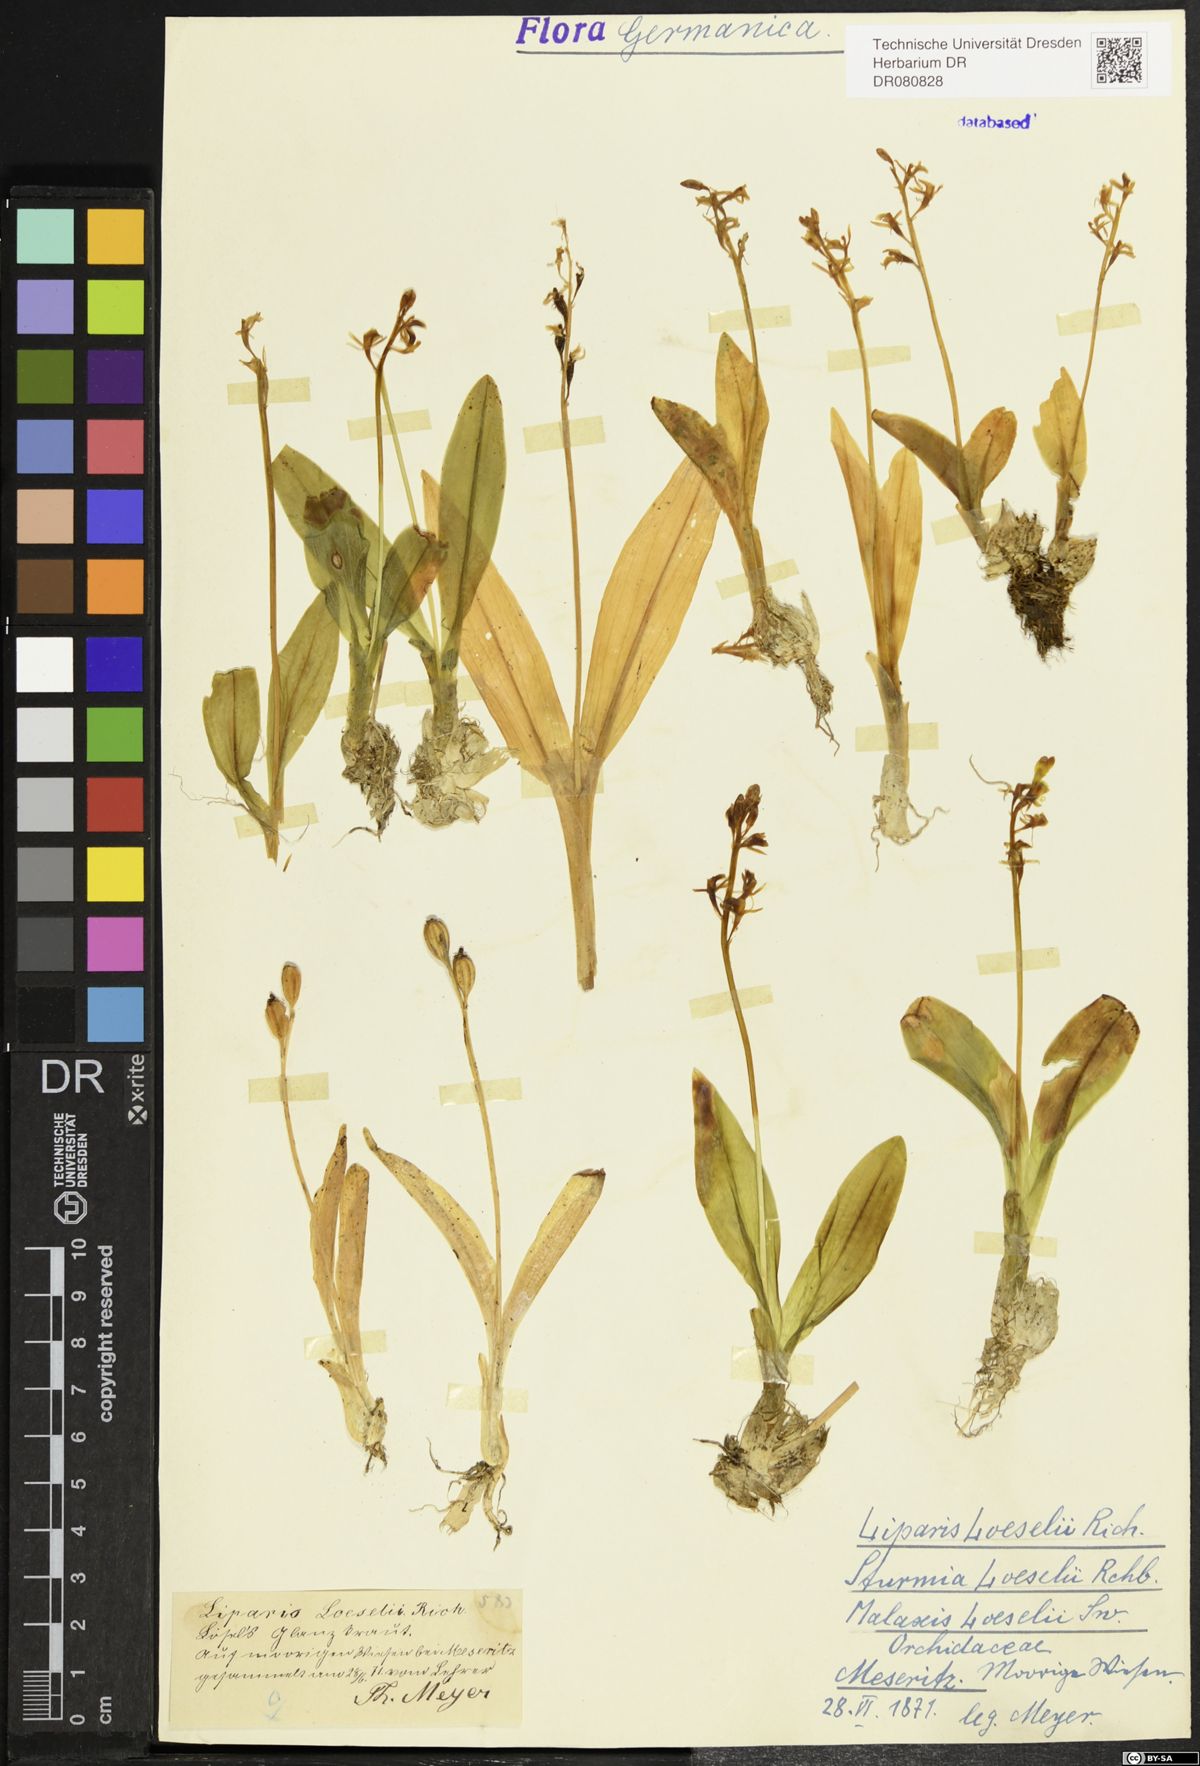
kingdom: Animalia
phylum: Arthropoda
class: Insecta
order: Coleoptera
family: Curculionidae
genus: Liparis
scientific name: Liparis loeselii
